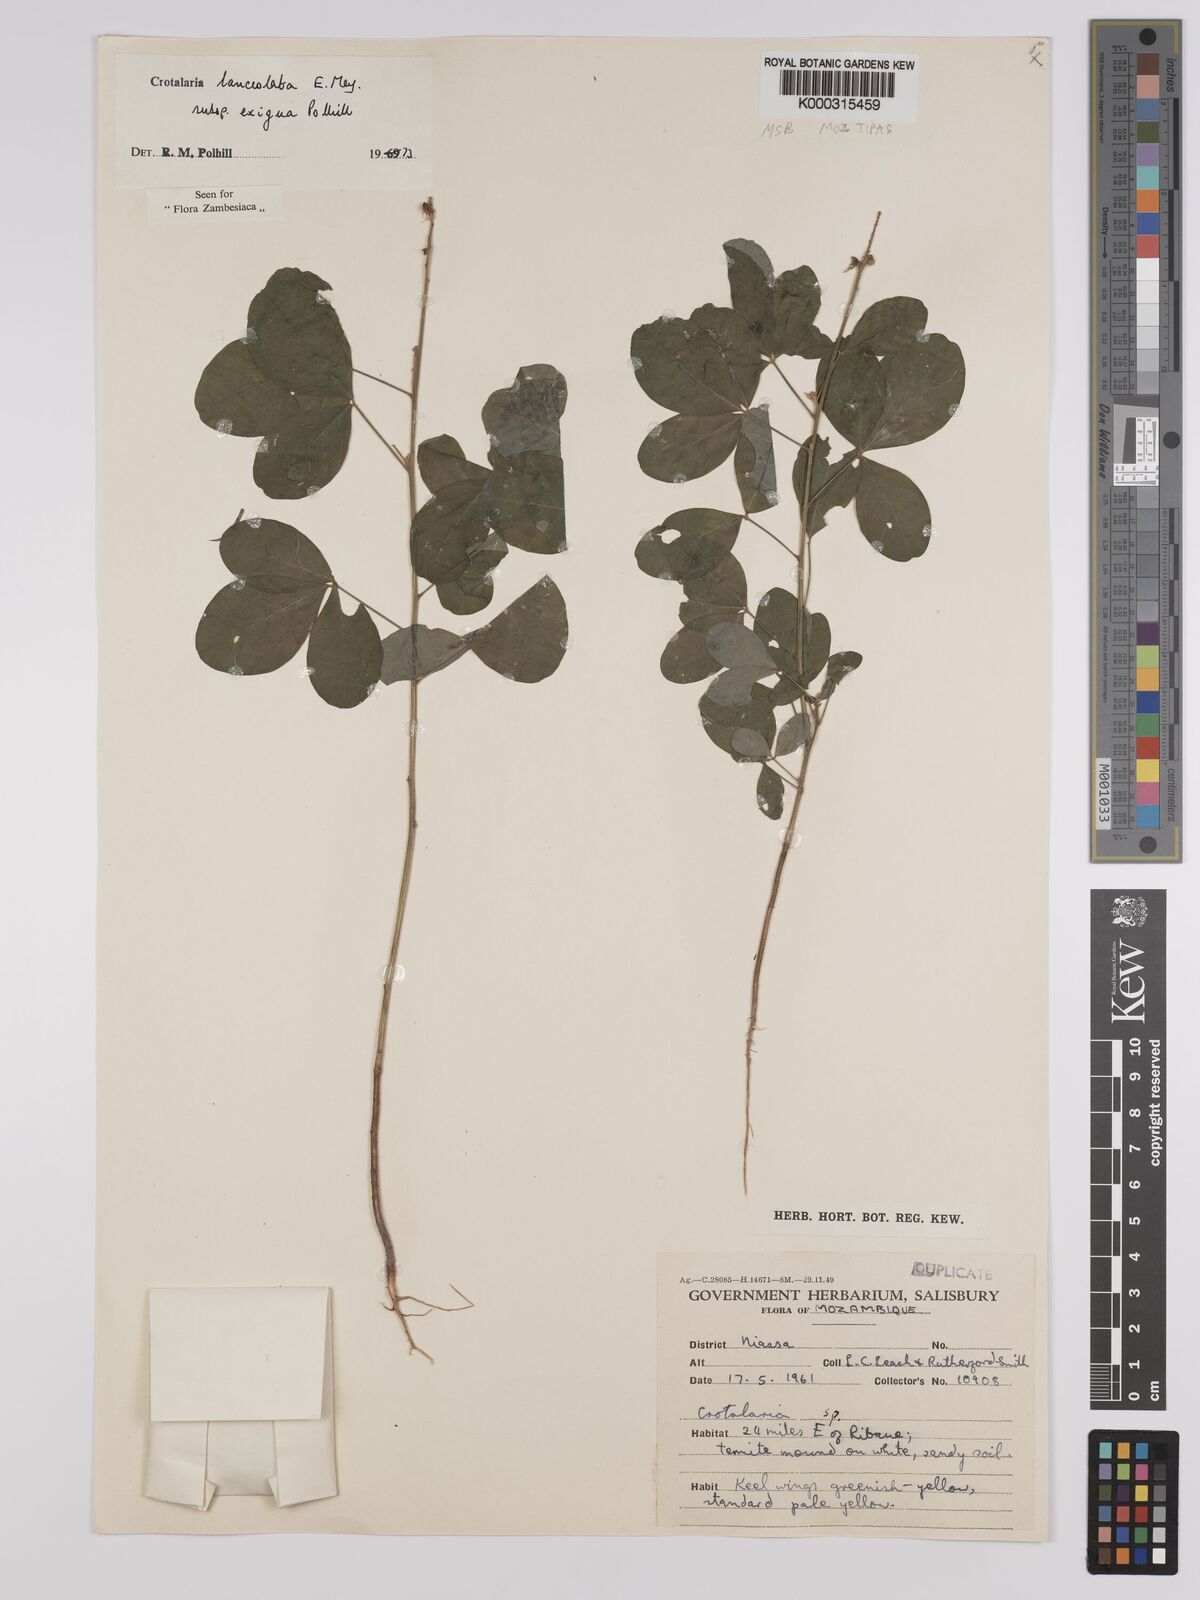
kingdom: Plantae
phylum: Tracheophyta
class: Magnoliopsida
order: Fabales
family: Fabaceae
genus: Crotalaria
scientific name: Crotalaria lanceolata
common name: Lanceleaf rattlebox
